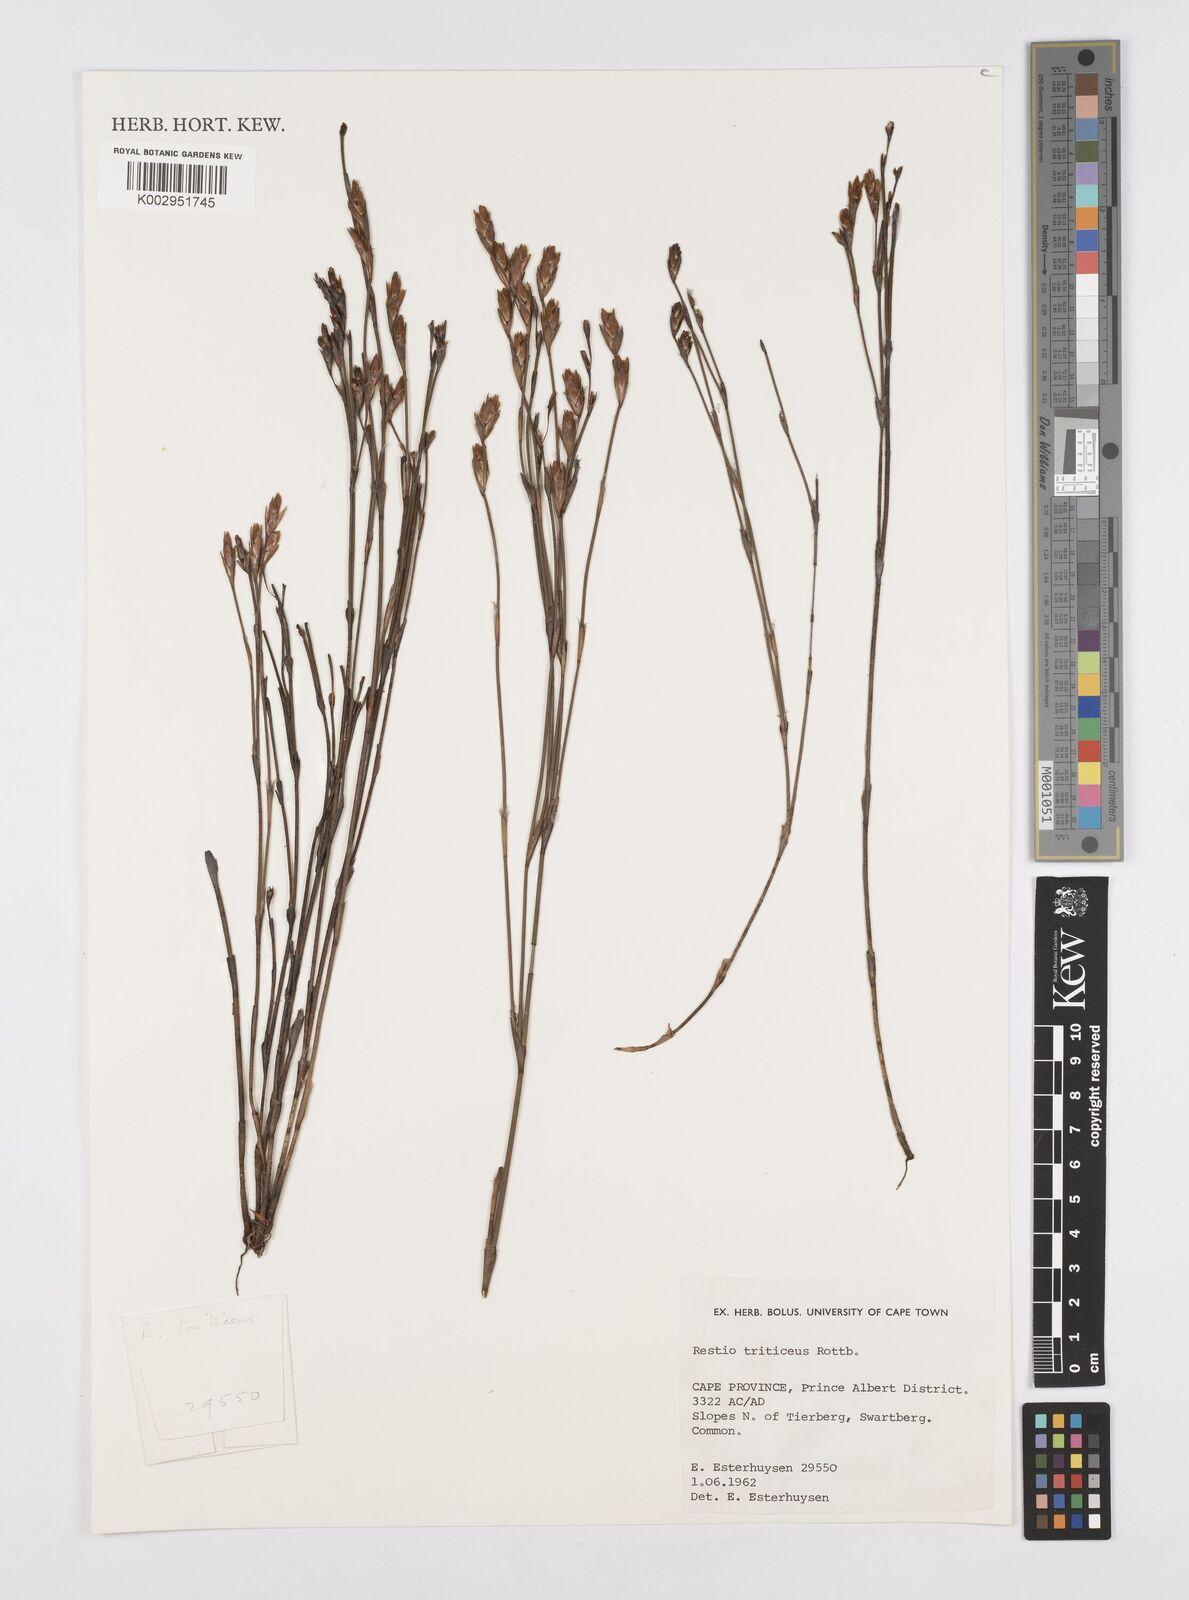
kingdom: Plantae
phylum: Tracheophyta
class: Liliopsida
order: Poales
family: Restionaceae
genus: Restio
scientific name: Restio triticeus
